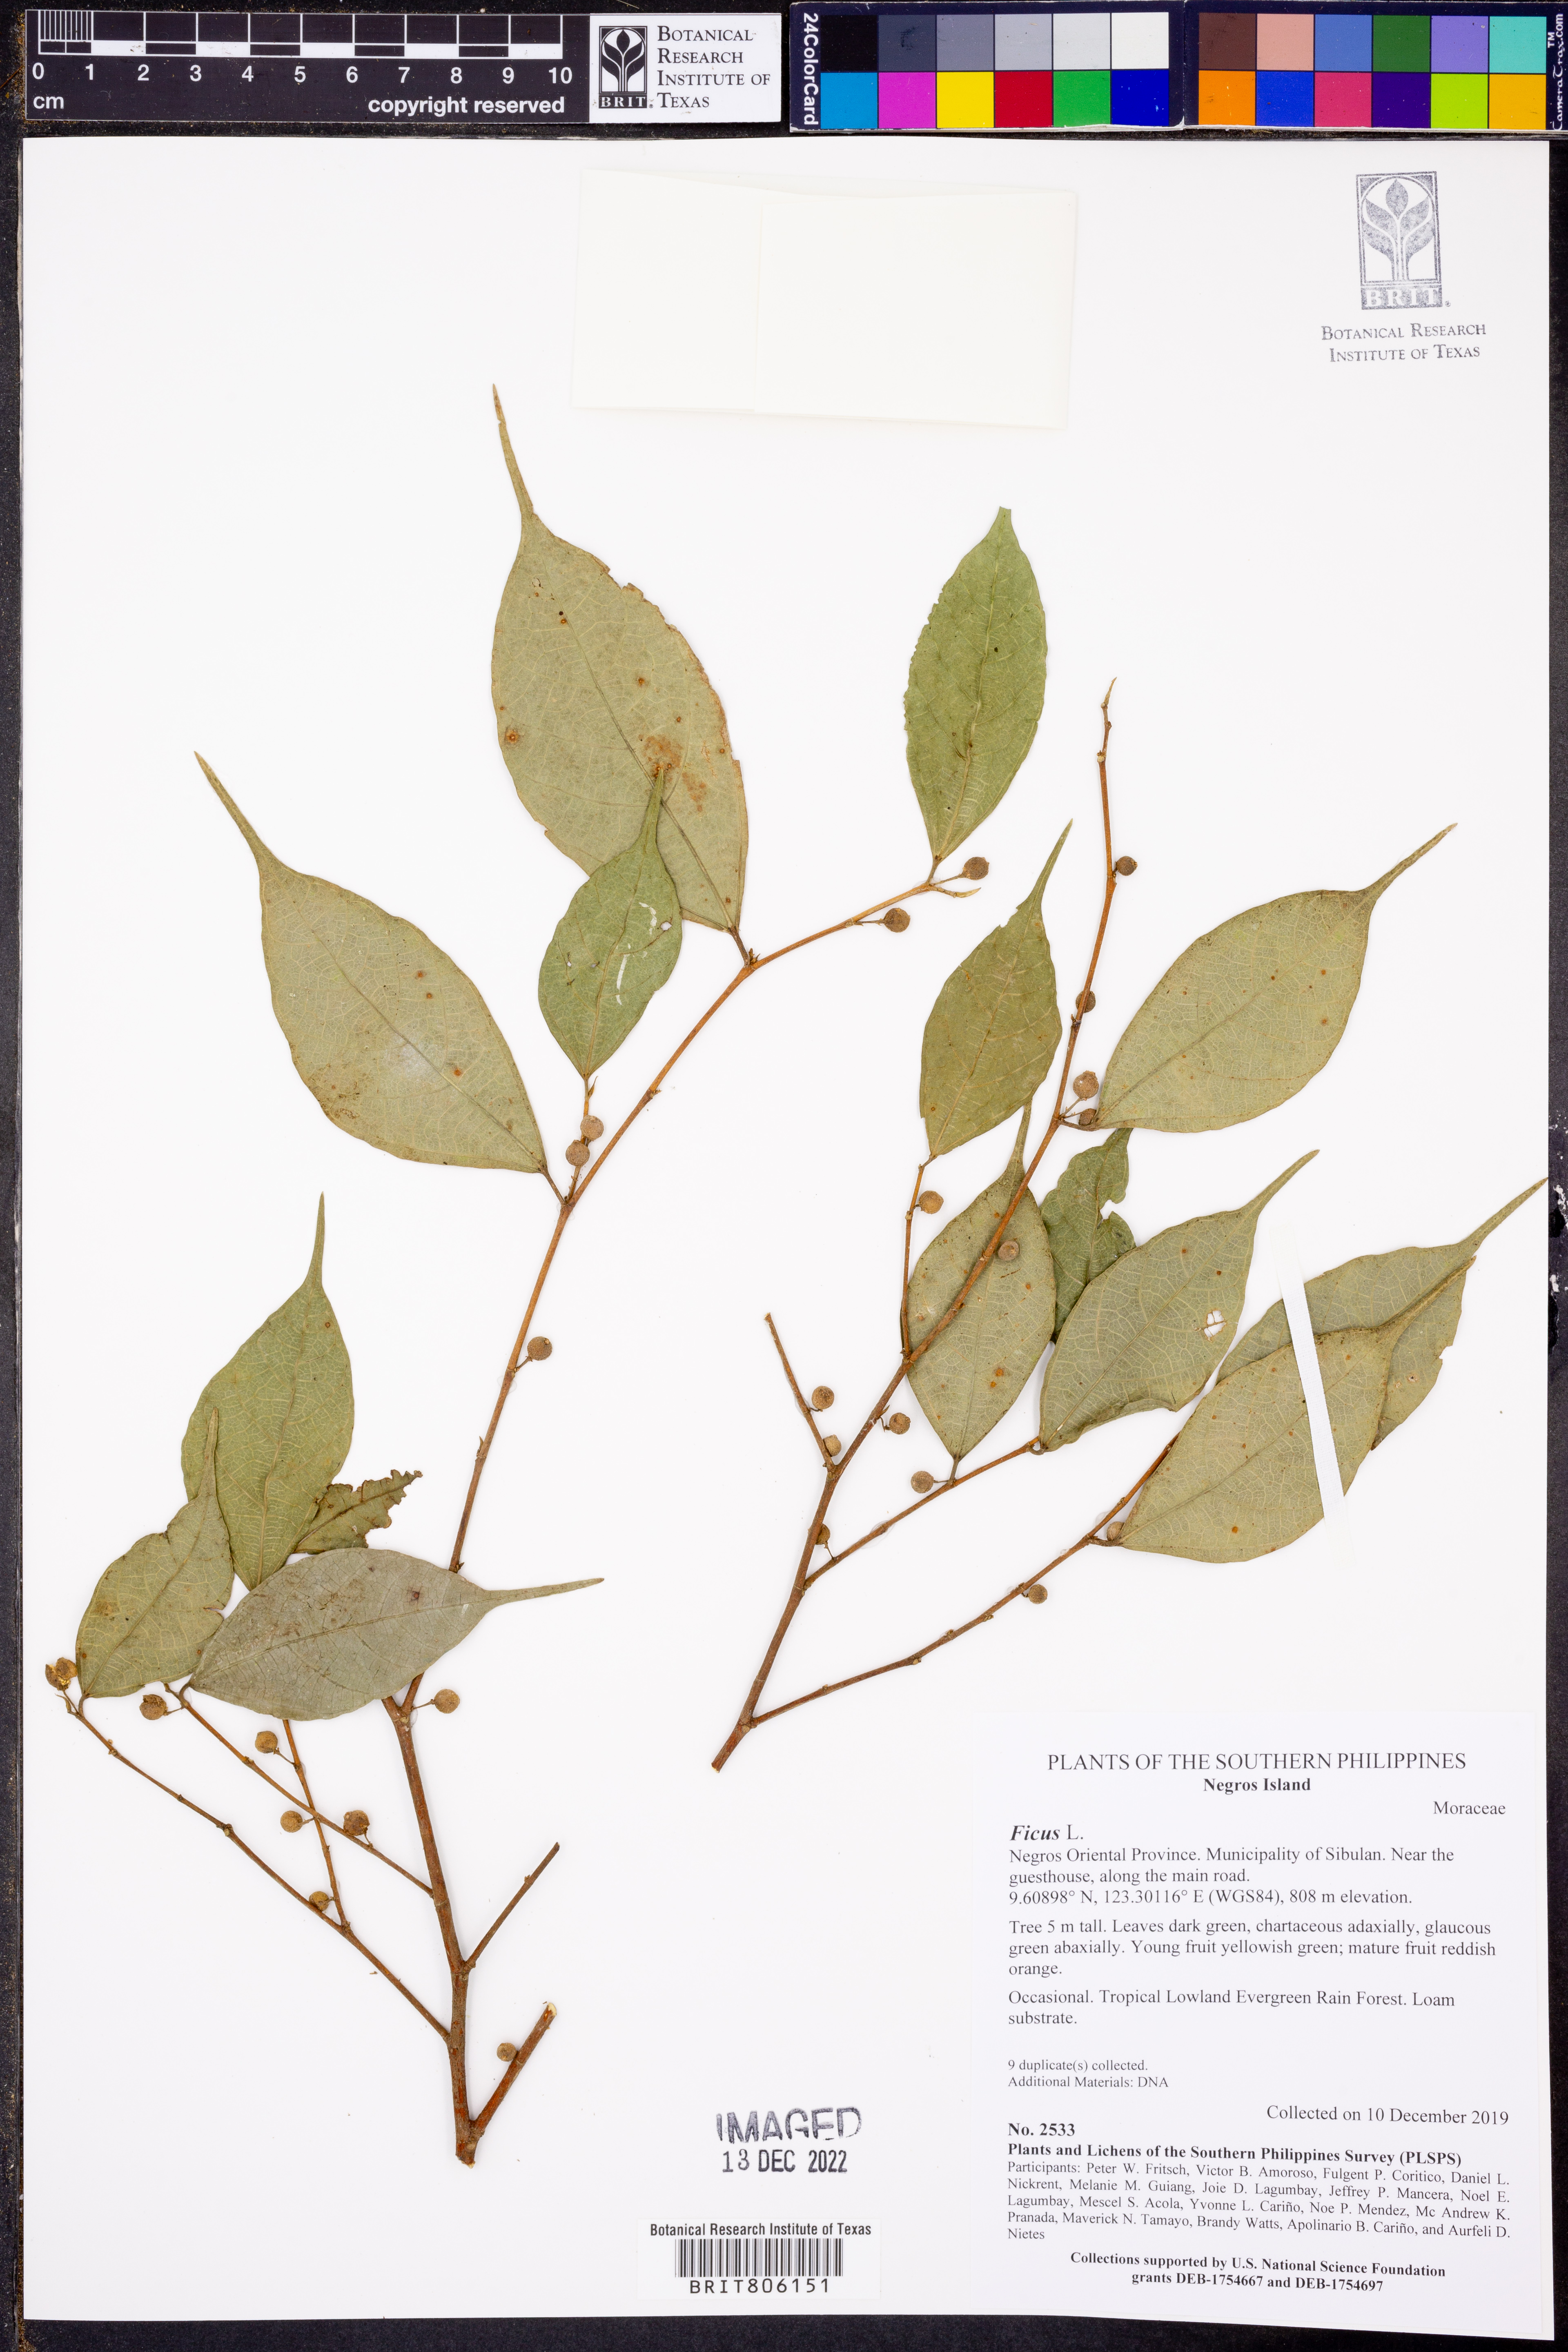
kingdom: Plantae
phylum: Tracheophyta
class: Magnoliopsida
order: Rosales
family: Moraceae
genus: Ficus
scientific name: Ficus
